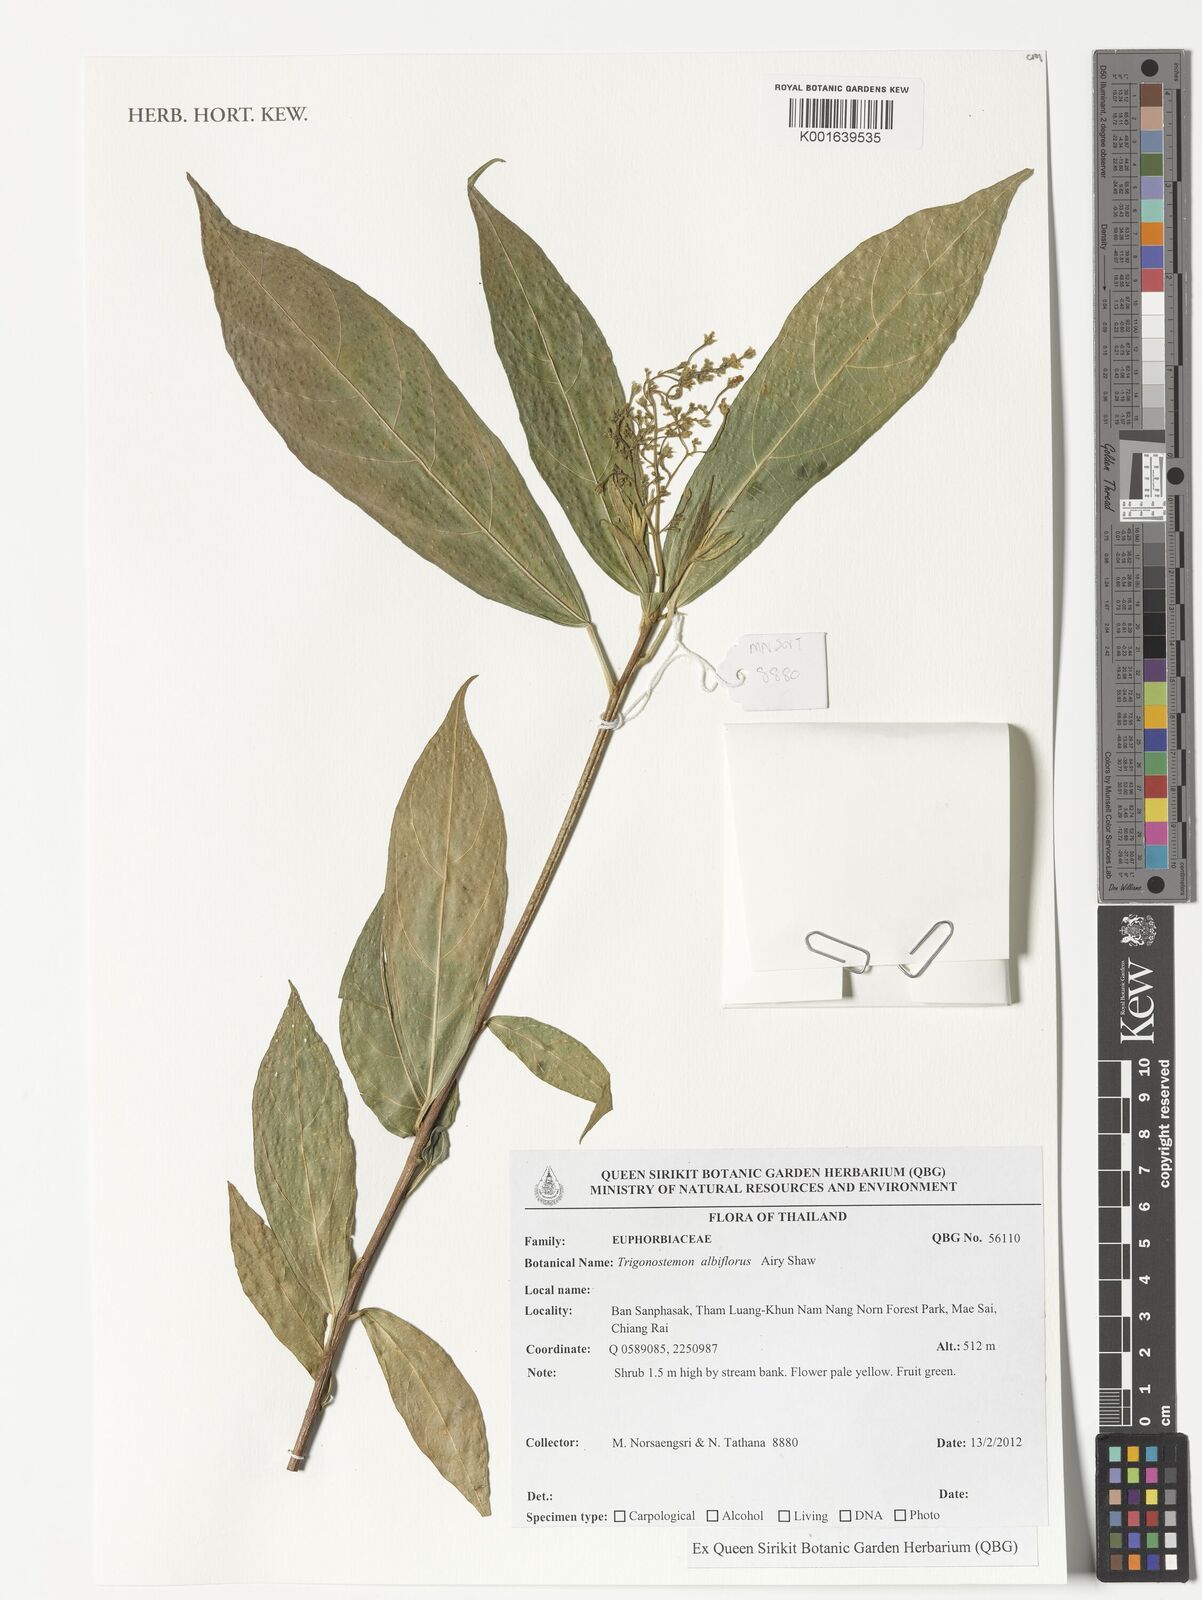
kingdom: Plantae
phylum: Tracheophyta
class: Magnoliopsida
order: Malpighiales
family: Euphorbiaceae
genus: Trigonostemon
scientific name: Trigonostemon eberhardtii
